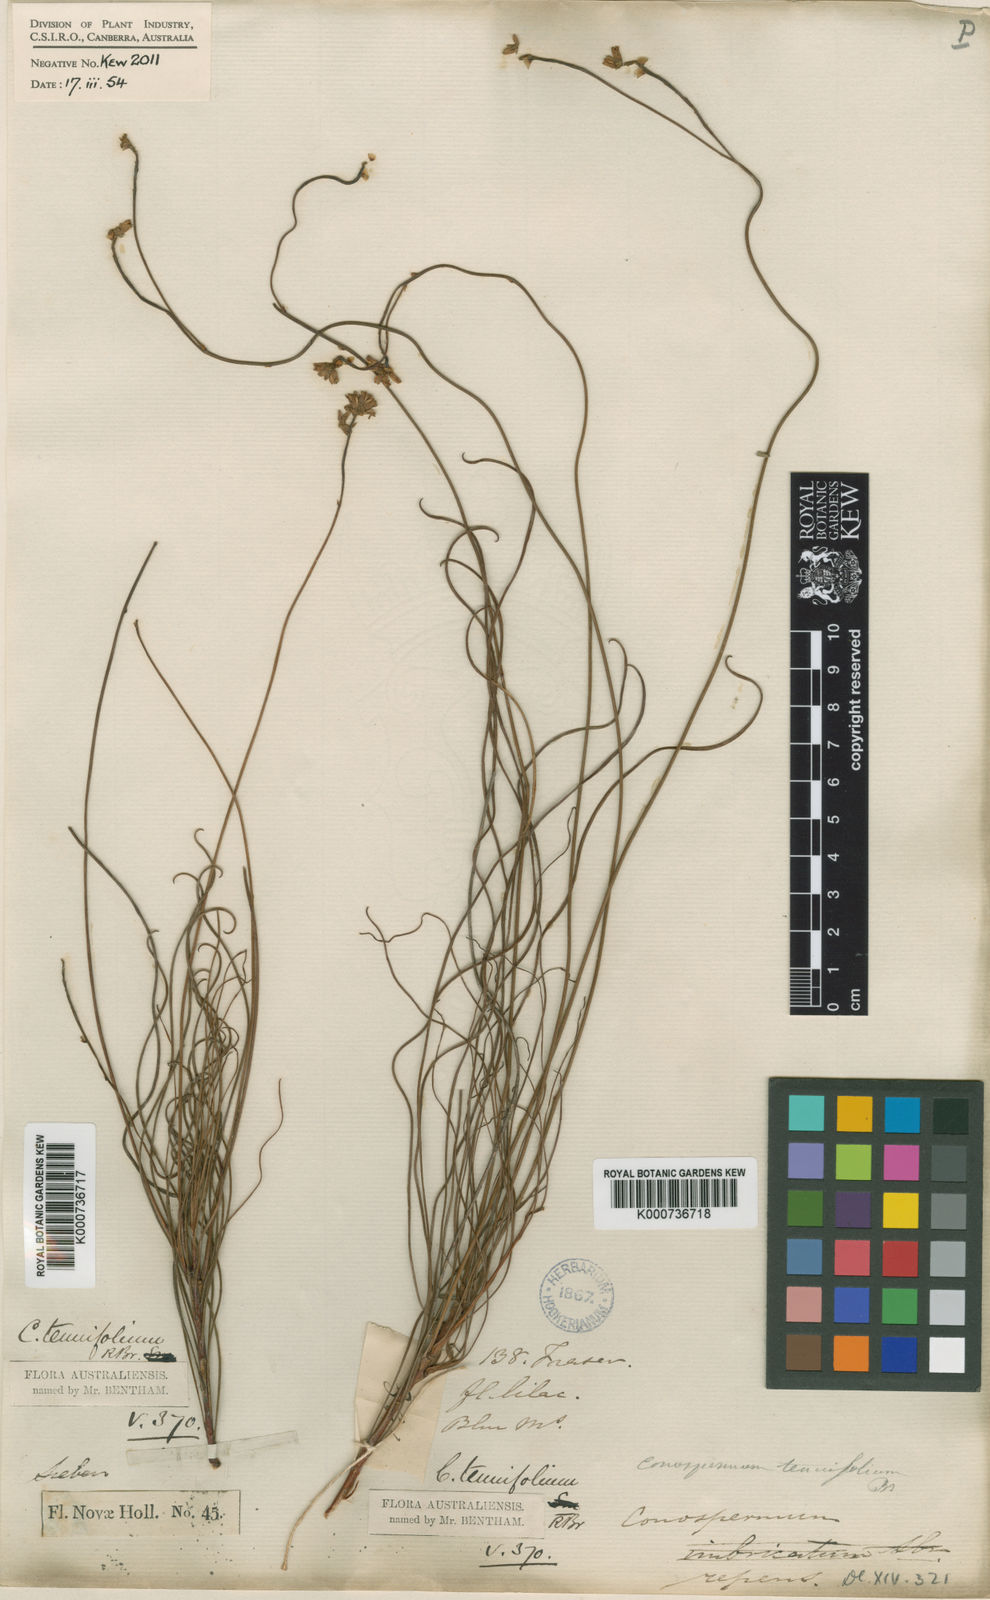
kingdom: Plantae
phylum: Tracheophyta
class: Magnoliopsida
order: Proteales
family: Proteaceae
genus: Conospermum
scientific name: Conospermum tenuifolium
